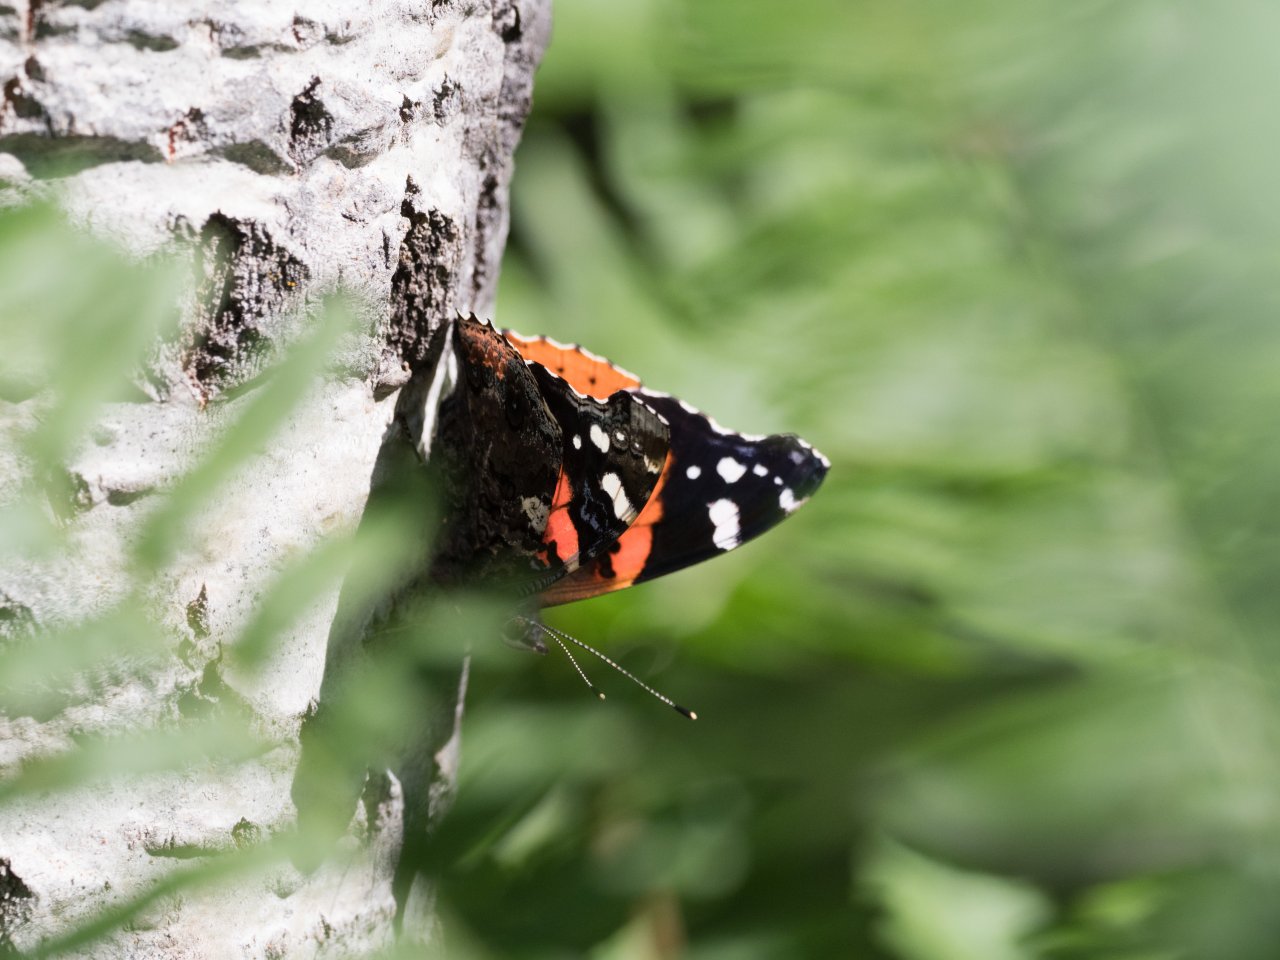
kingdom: Animalia
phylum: Arthropoda
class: Insecta
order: Lepidoptera
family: Nymphalidae
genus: Vanessa
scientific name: Vanessa atalanta
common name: Red Admiral
